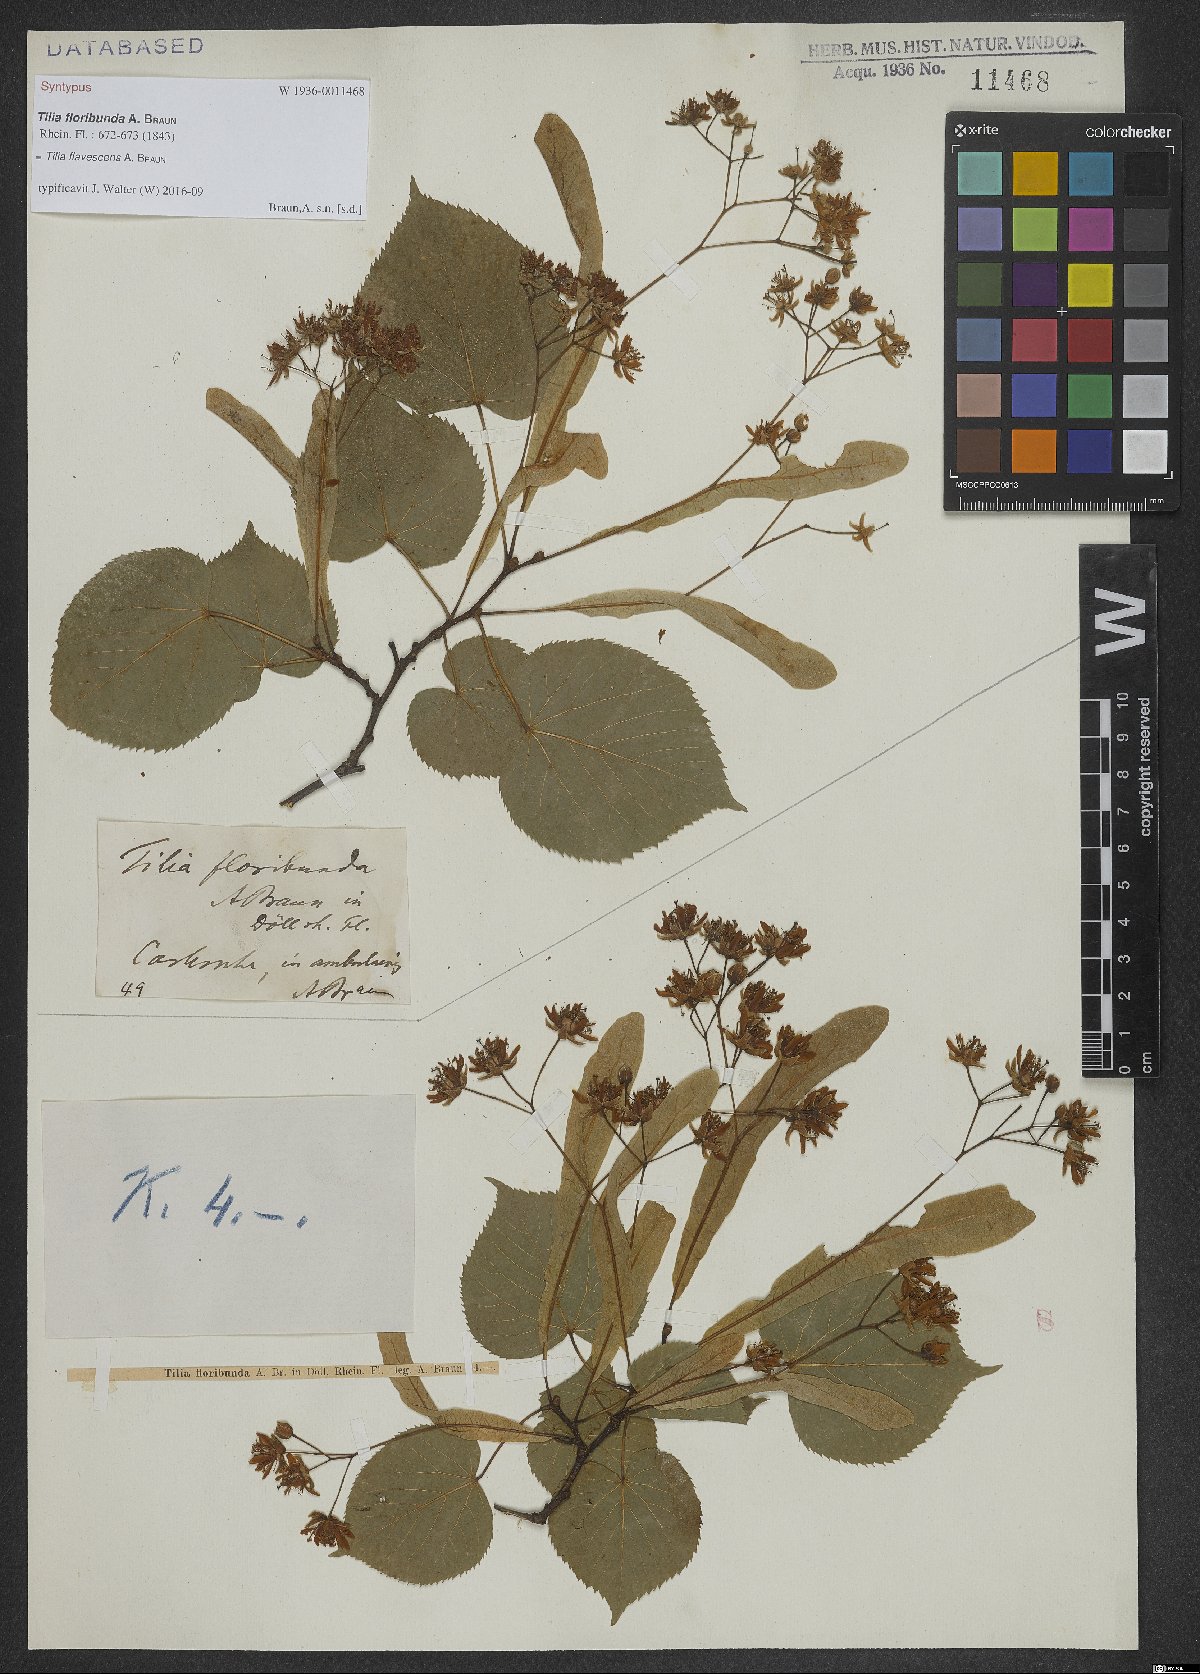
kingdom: Plantae
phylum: Tracheophyta
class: Magnoliopsida
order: Malvales
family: Tiliaceae
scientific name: Tiliaceae
